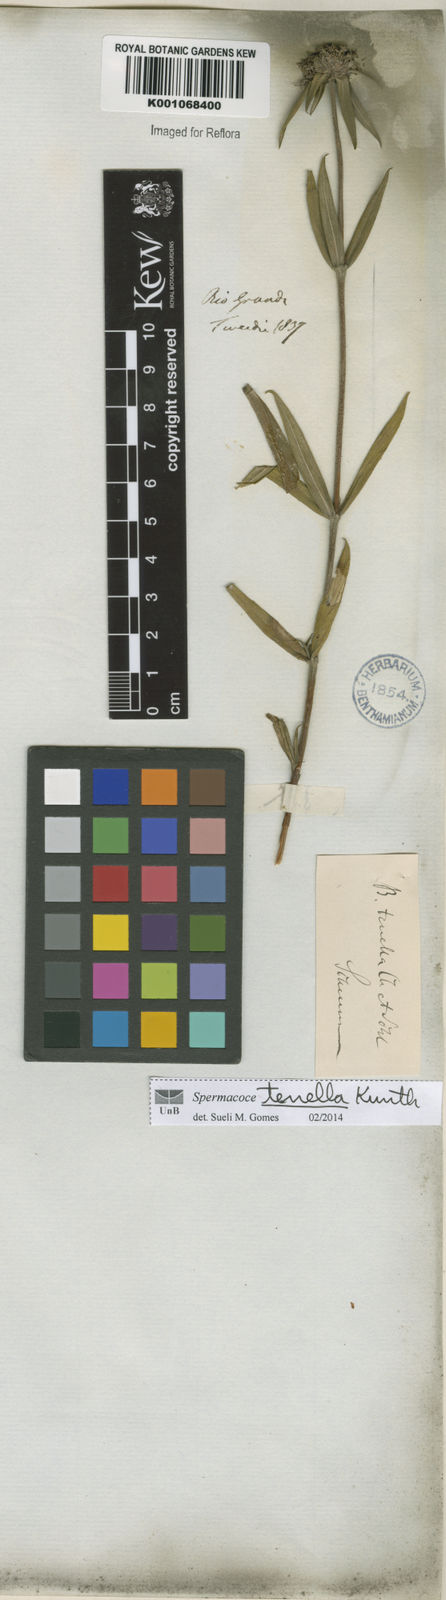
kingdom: Plantae
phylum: Tracheophyta
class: Magnoliopsida
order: Gentianales
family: Rubiaceae
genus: Spermacoce
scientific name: Spermacoce orinocensis
